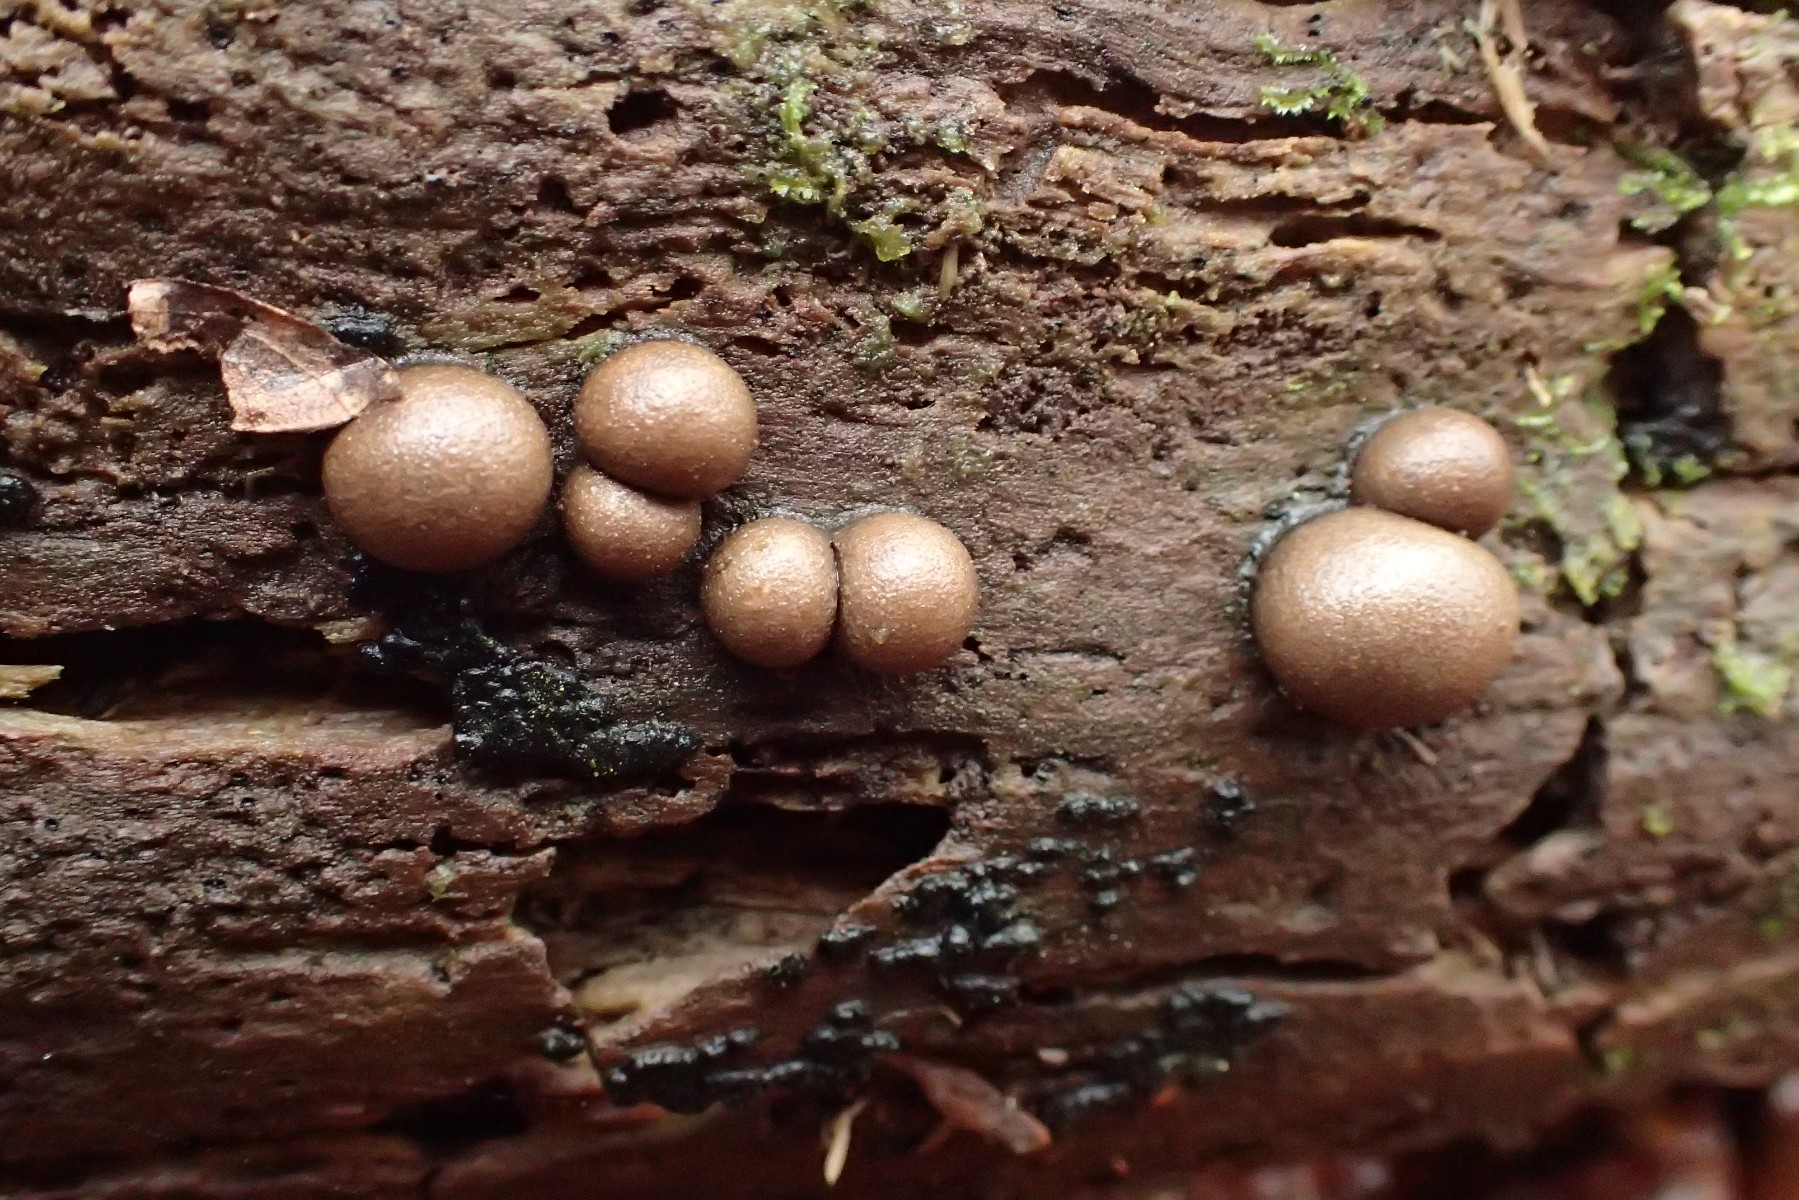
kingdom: Protozoa
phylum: Mycetozoa
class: Myxomycetes
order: Cribrariales
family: Tubiferaceae
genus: Lycogala
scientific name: Lycogala epidendrum
